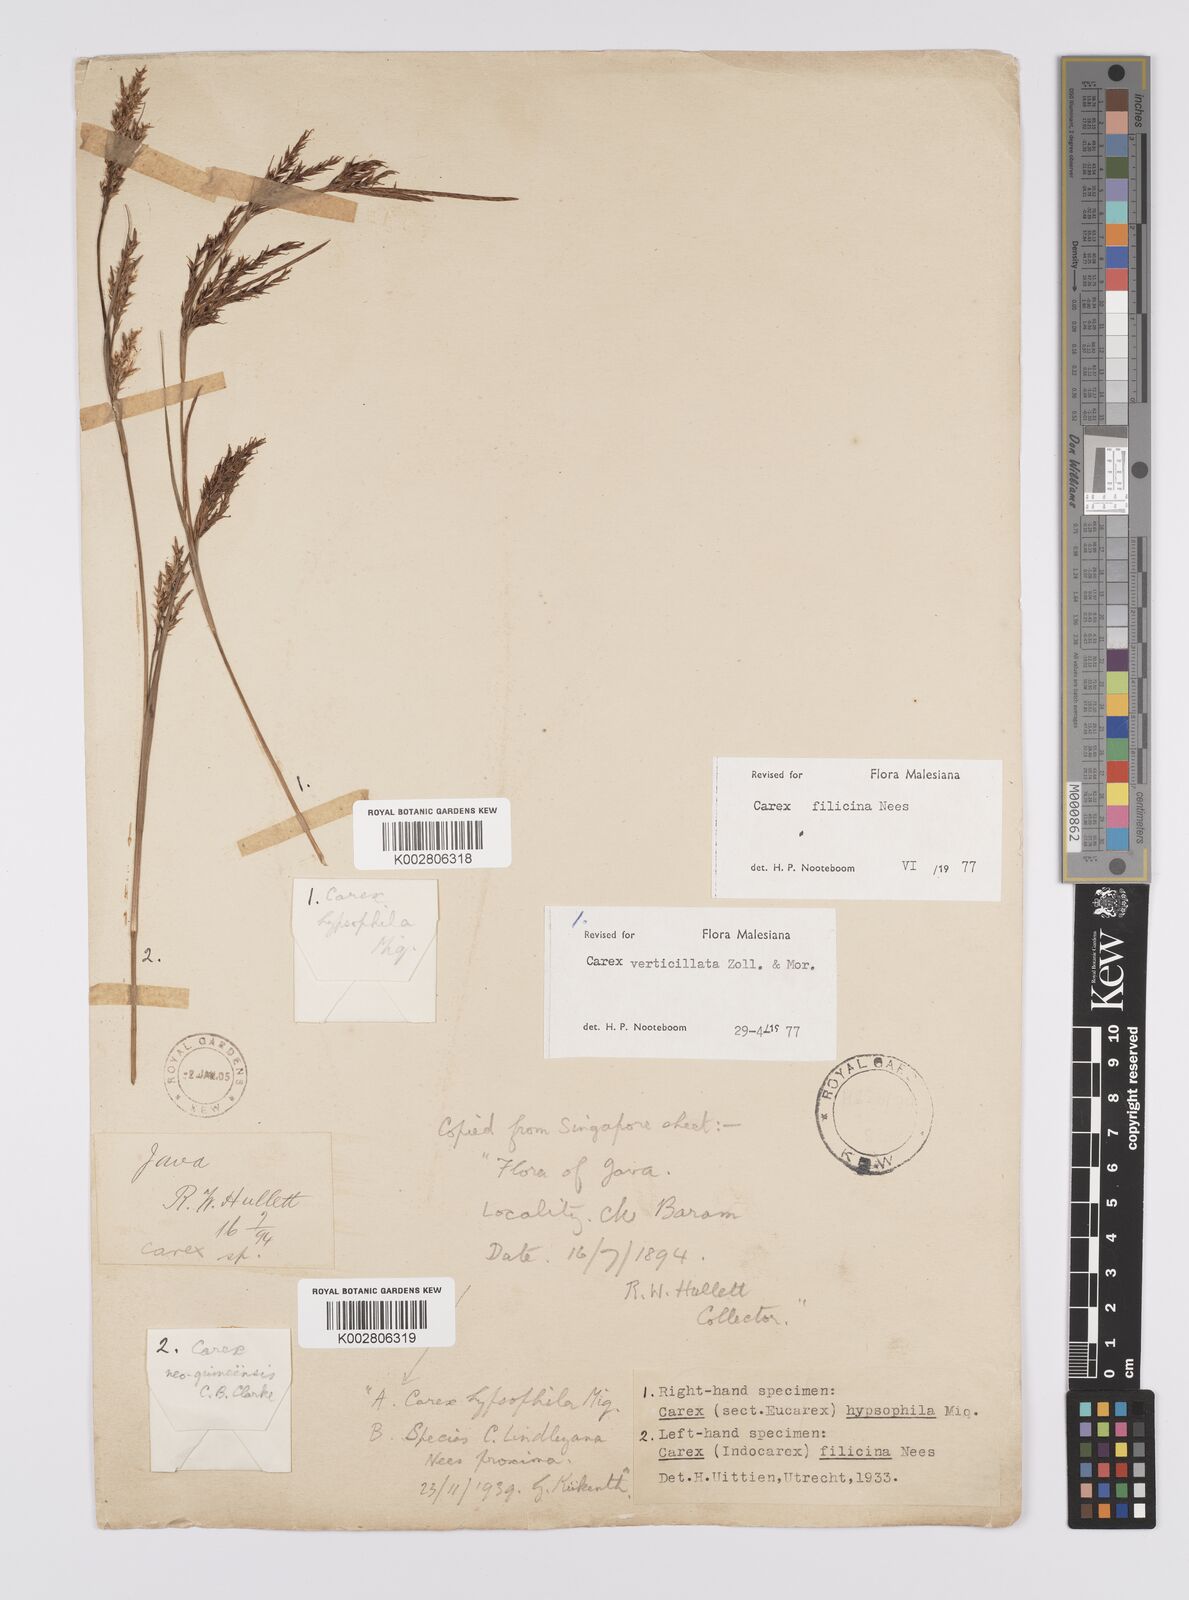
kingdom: Plantae
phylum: Tracheophyta
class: Liliopsida
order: Poales
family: Cyperaceae
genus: Carex
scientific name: Carex verticillata
